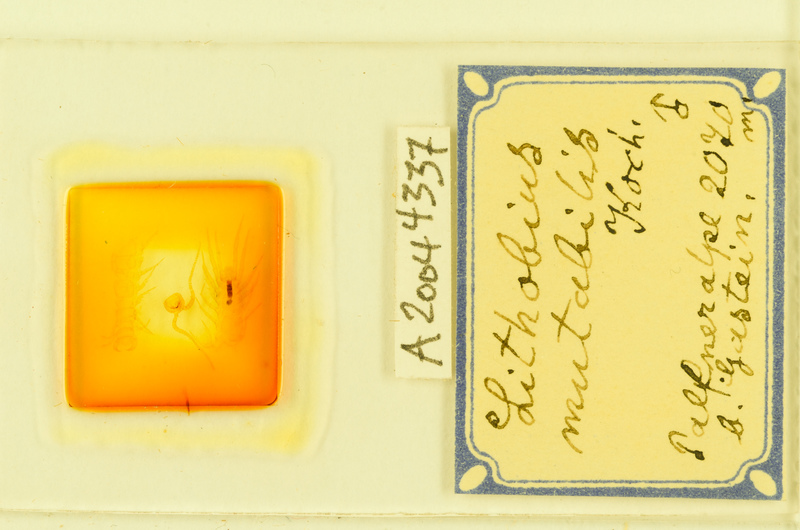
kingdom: Animalia
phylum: Arthropoda
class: Chilopoda
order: Lithobiomorpha
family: Lithobiidae
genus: Lithobius
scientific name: Lithobius mutabilis
